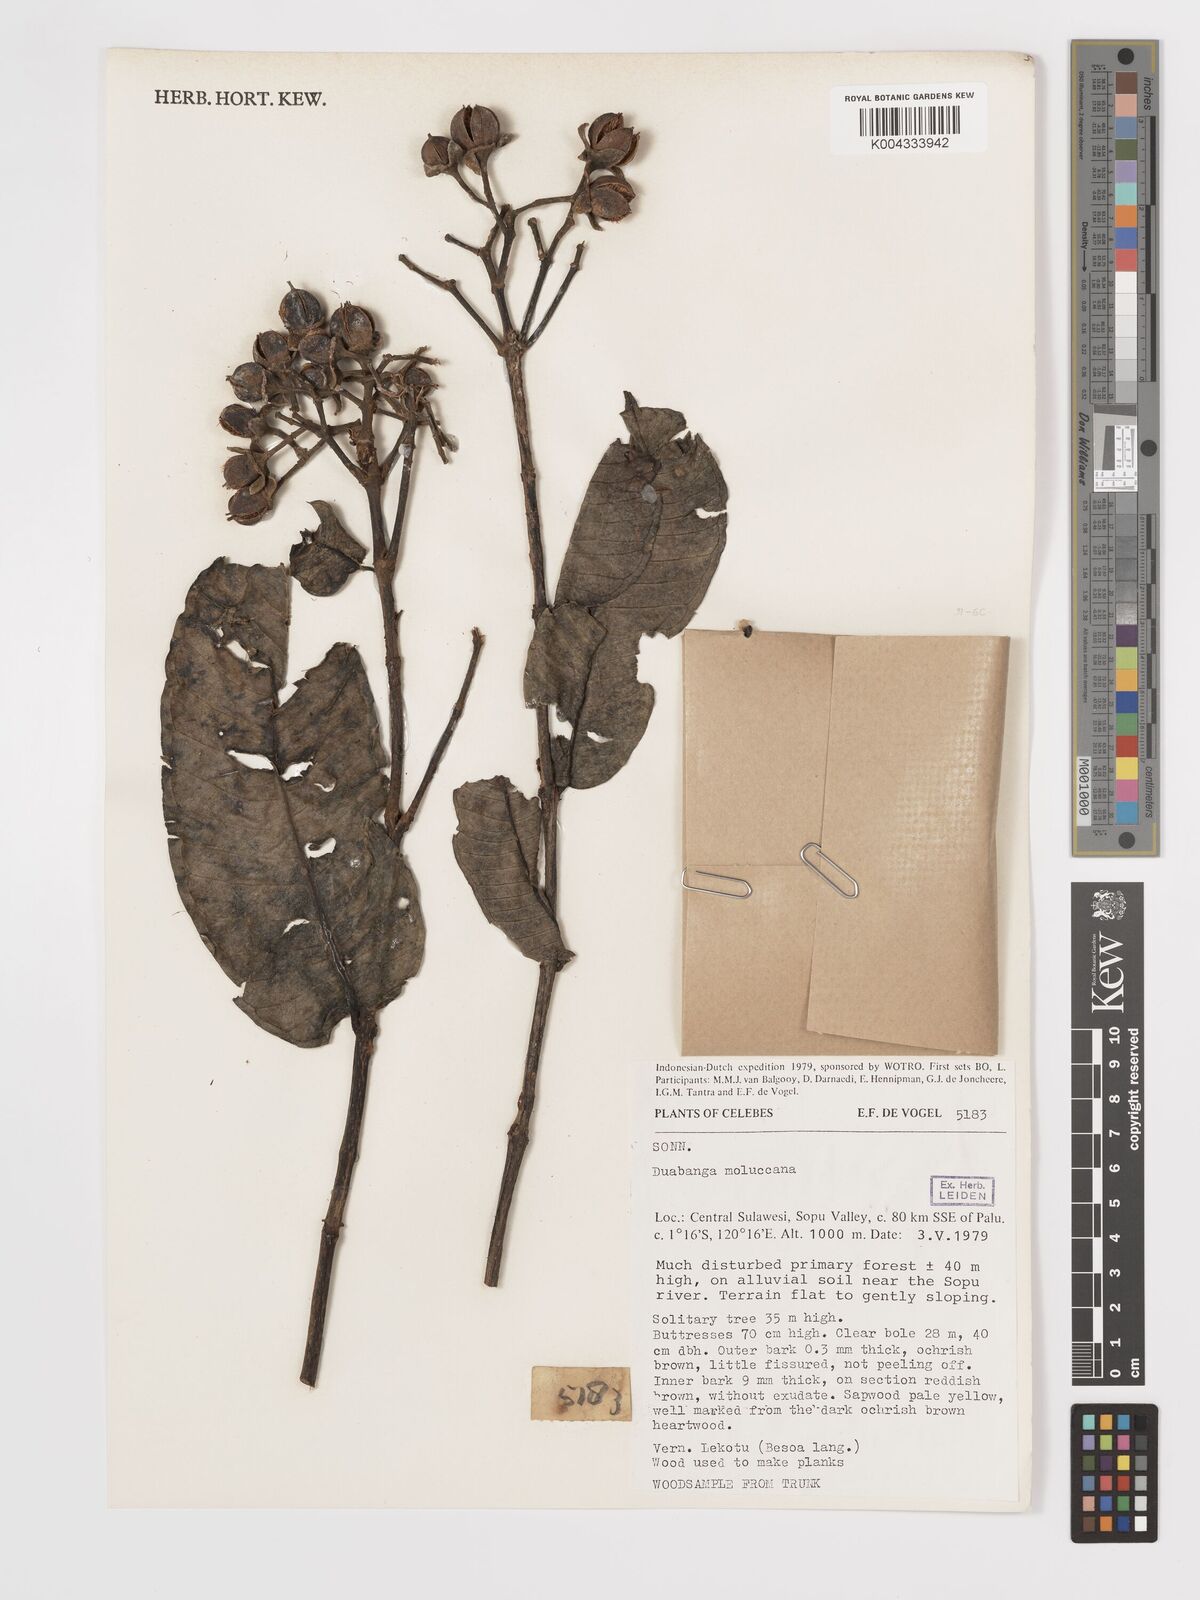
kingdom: Plantae
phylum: Tracheophyta
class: Magnoliopsida
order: Myrtales
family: Lythraceae
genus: Duabanga
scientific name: Duabanga moluccana
